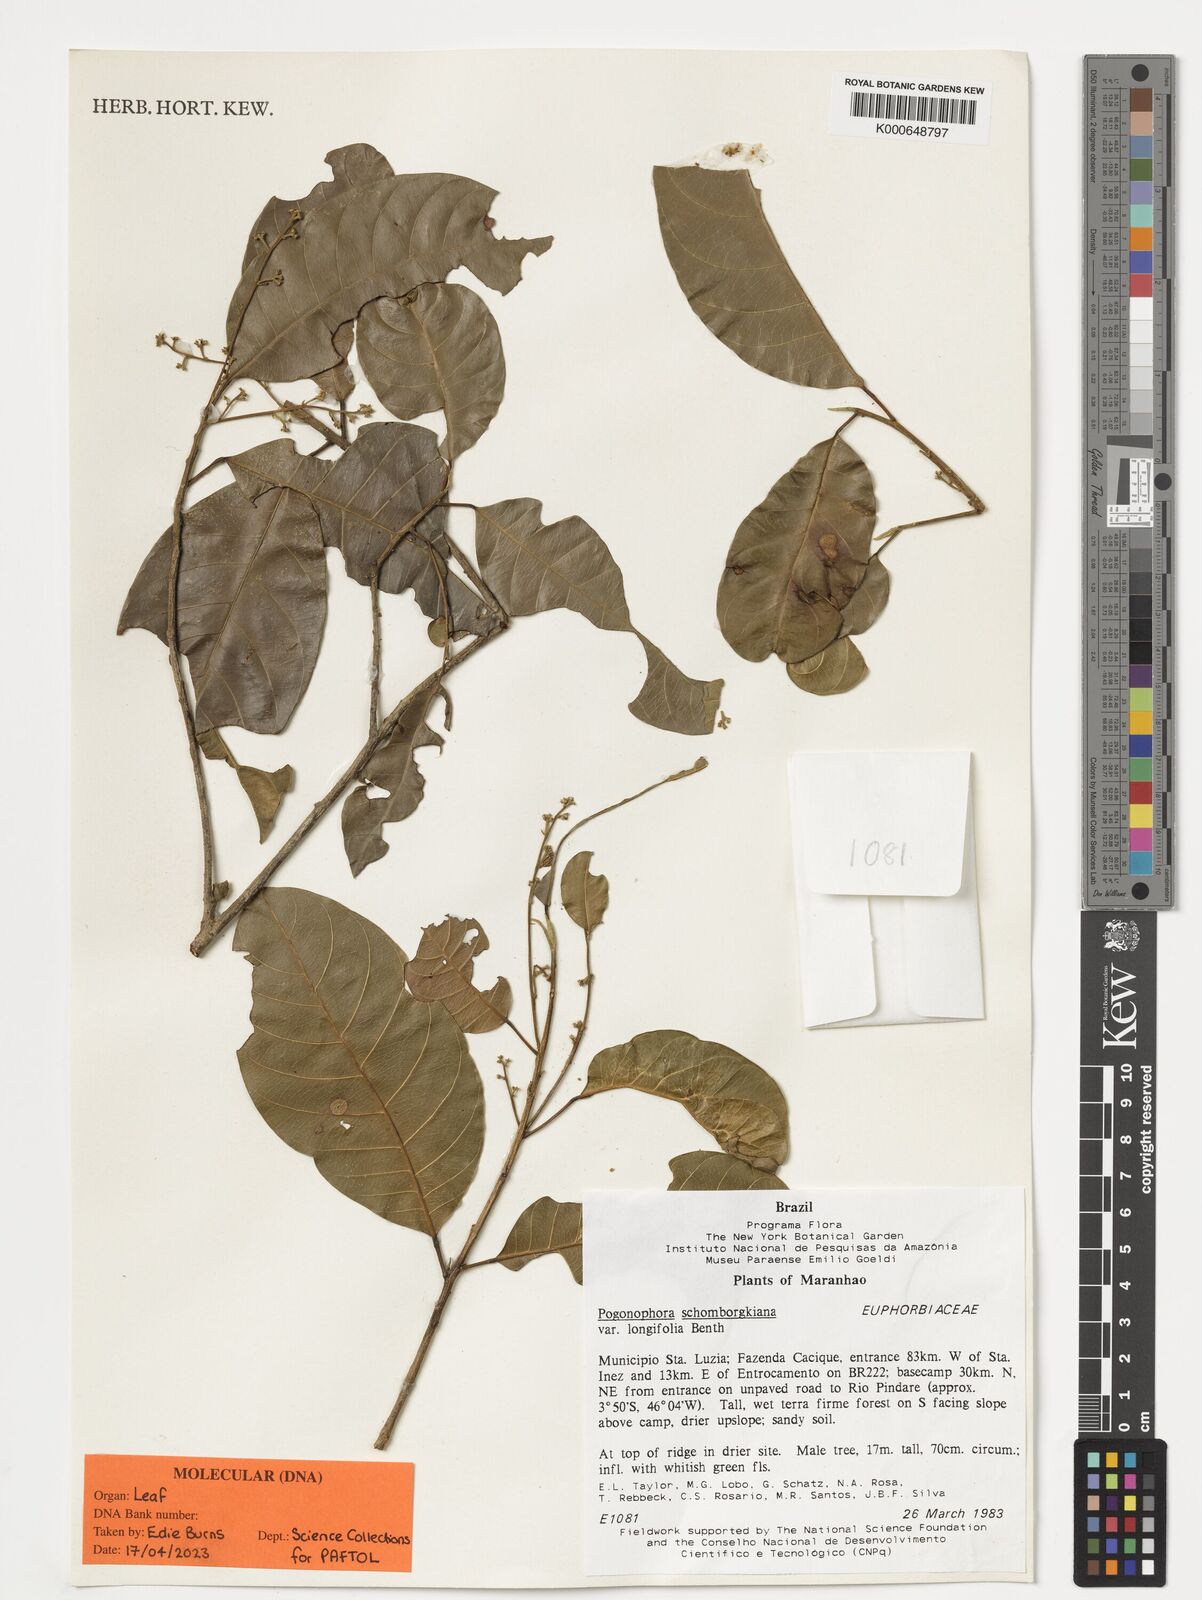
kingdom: Plantae
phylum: Tracheophyta
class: Magnoliopsida
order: Malpighiales
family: Peraceae
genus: Pogonophora
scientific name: Pogonophora schomburgkiana
